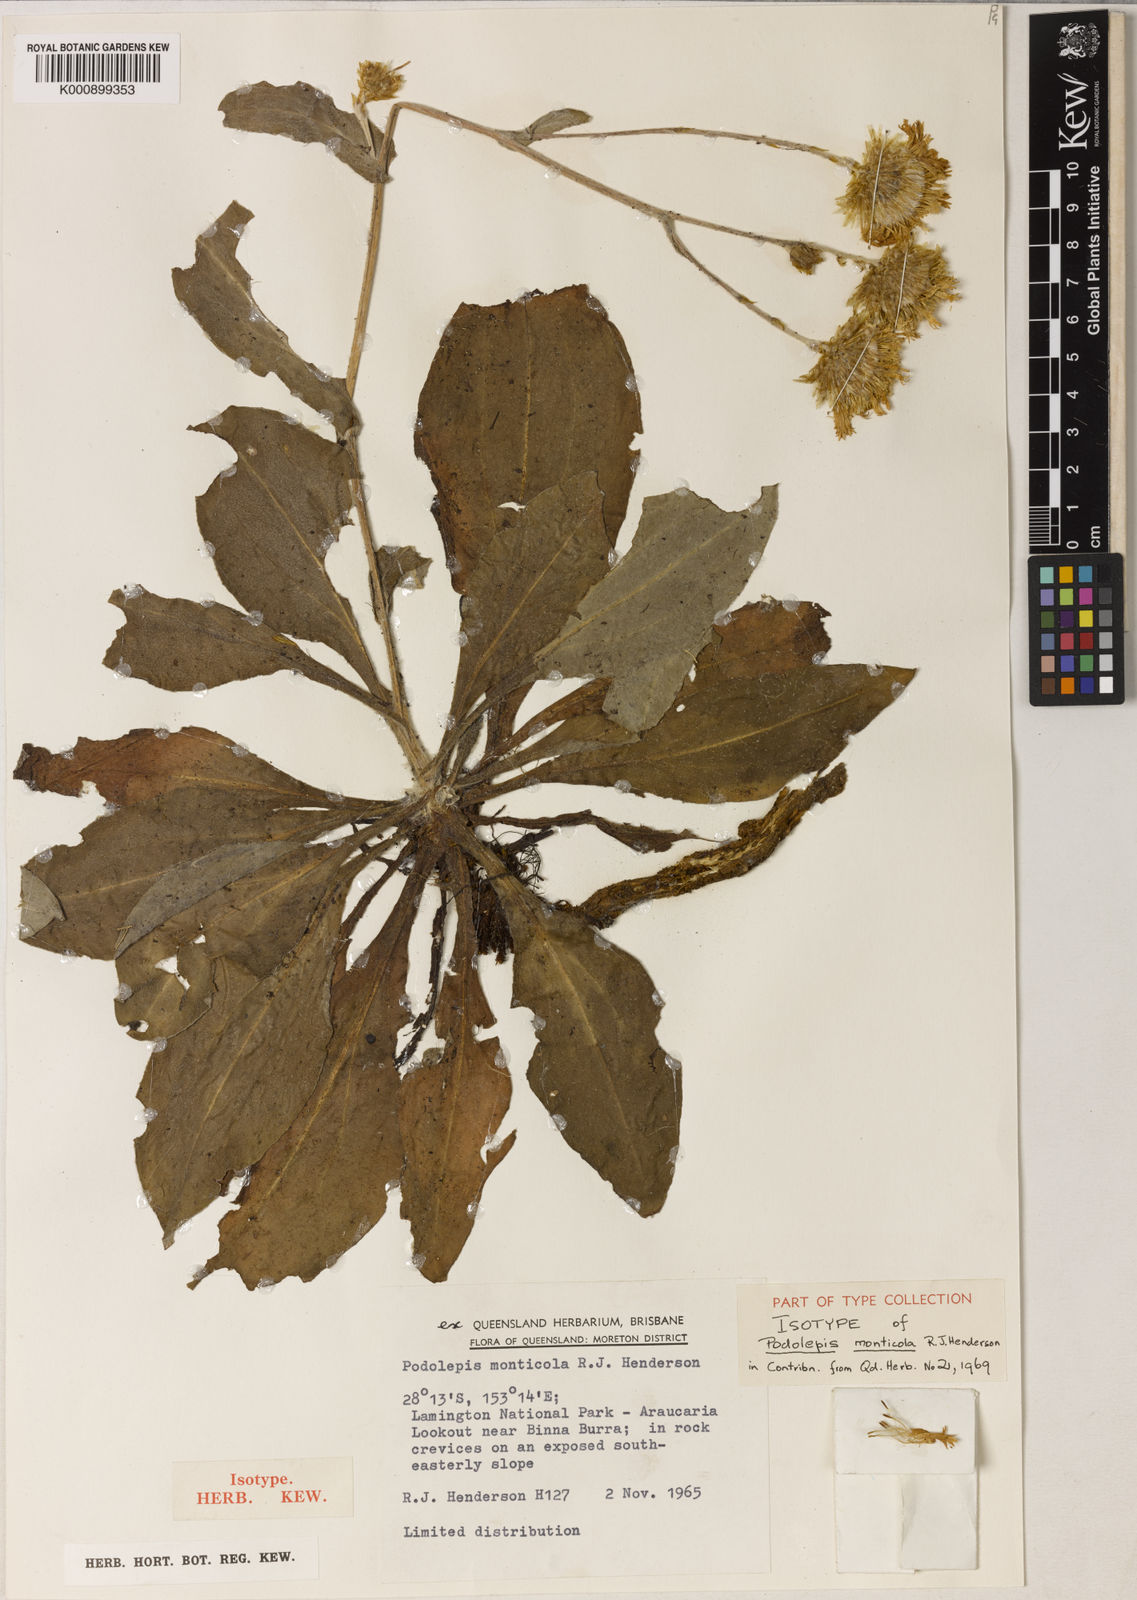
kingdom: Plantae
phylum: Tracheophyta
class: Magnoliopsida
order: Asterales
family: Asteraceae
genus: Podolepis
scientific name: Podolepis monticola
